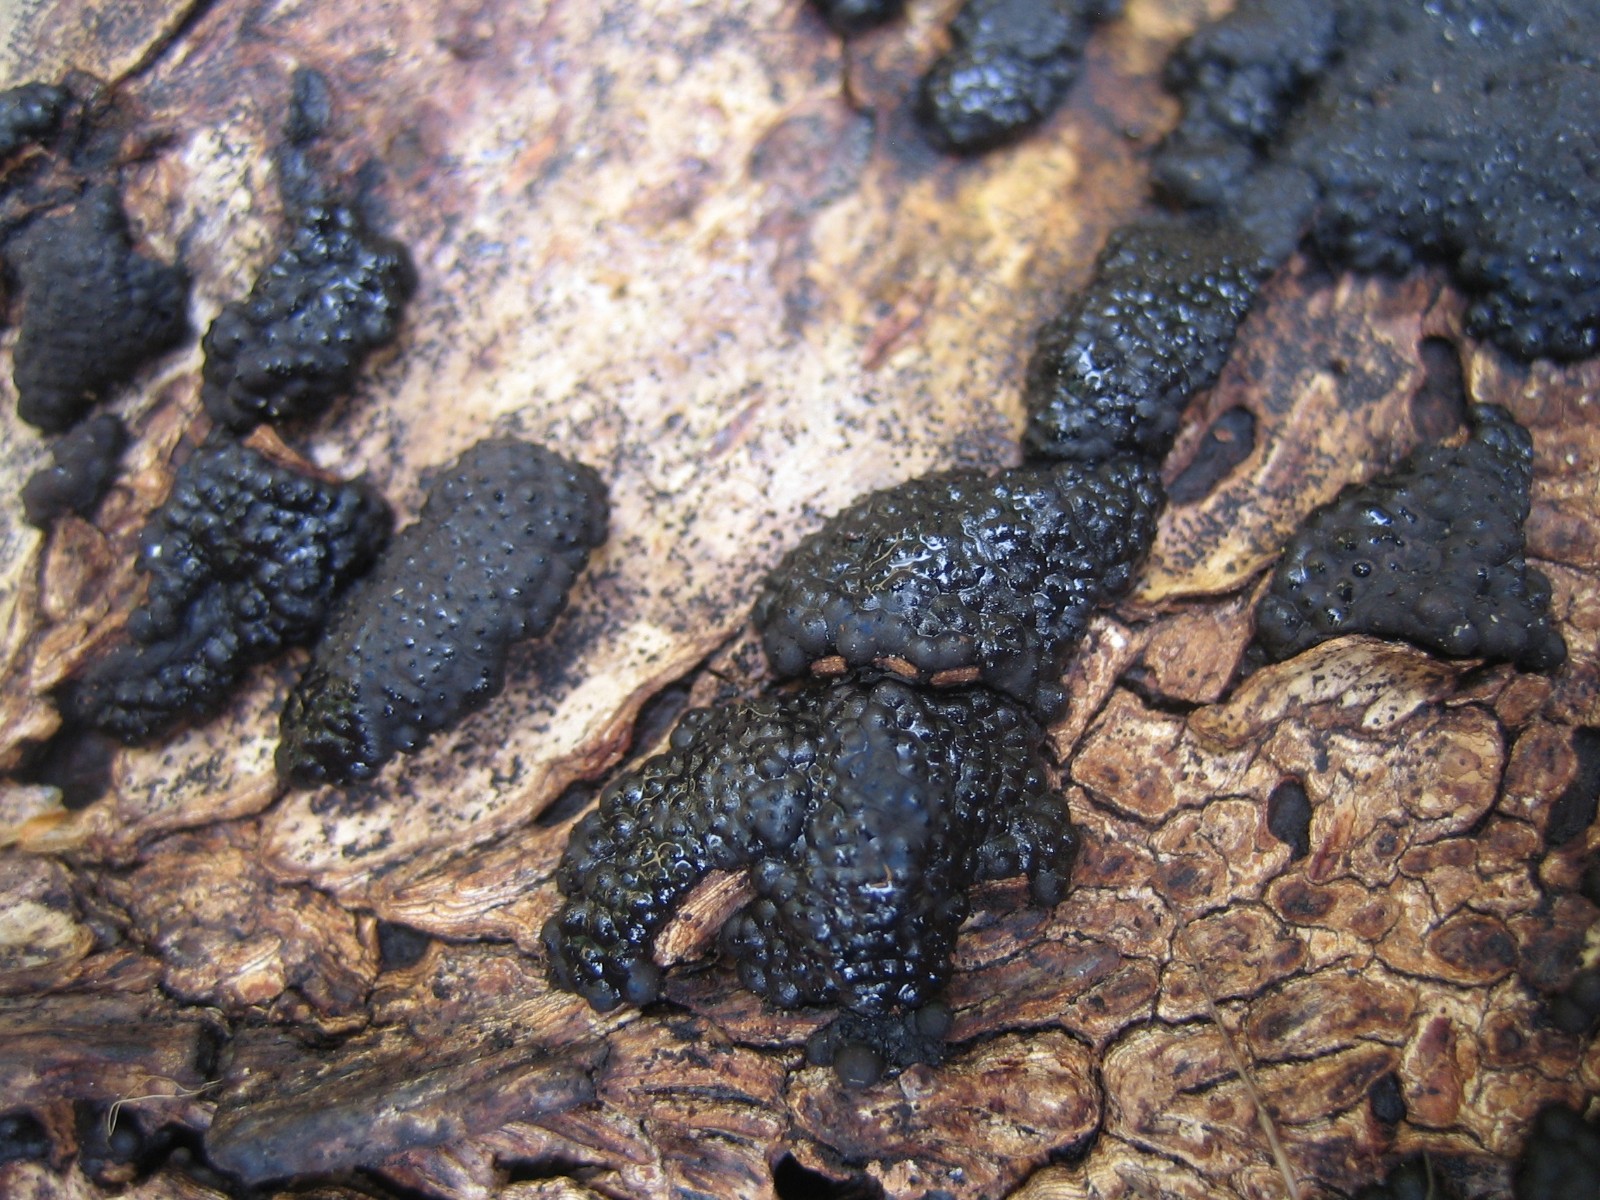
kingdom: Fungi
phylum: Ascomycota
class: Sordariomycetes
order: Xylariales
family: Hypoxylaceae
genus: Jackrogersella
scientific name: Jackrogersella multiformis
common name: foranderlig kulbær
